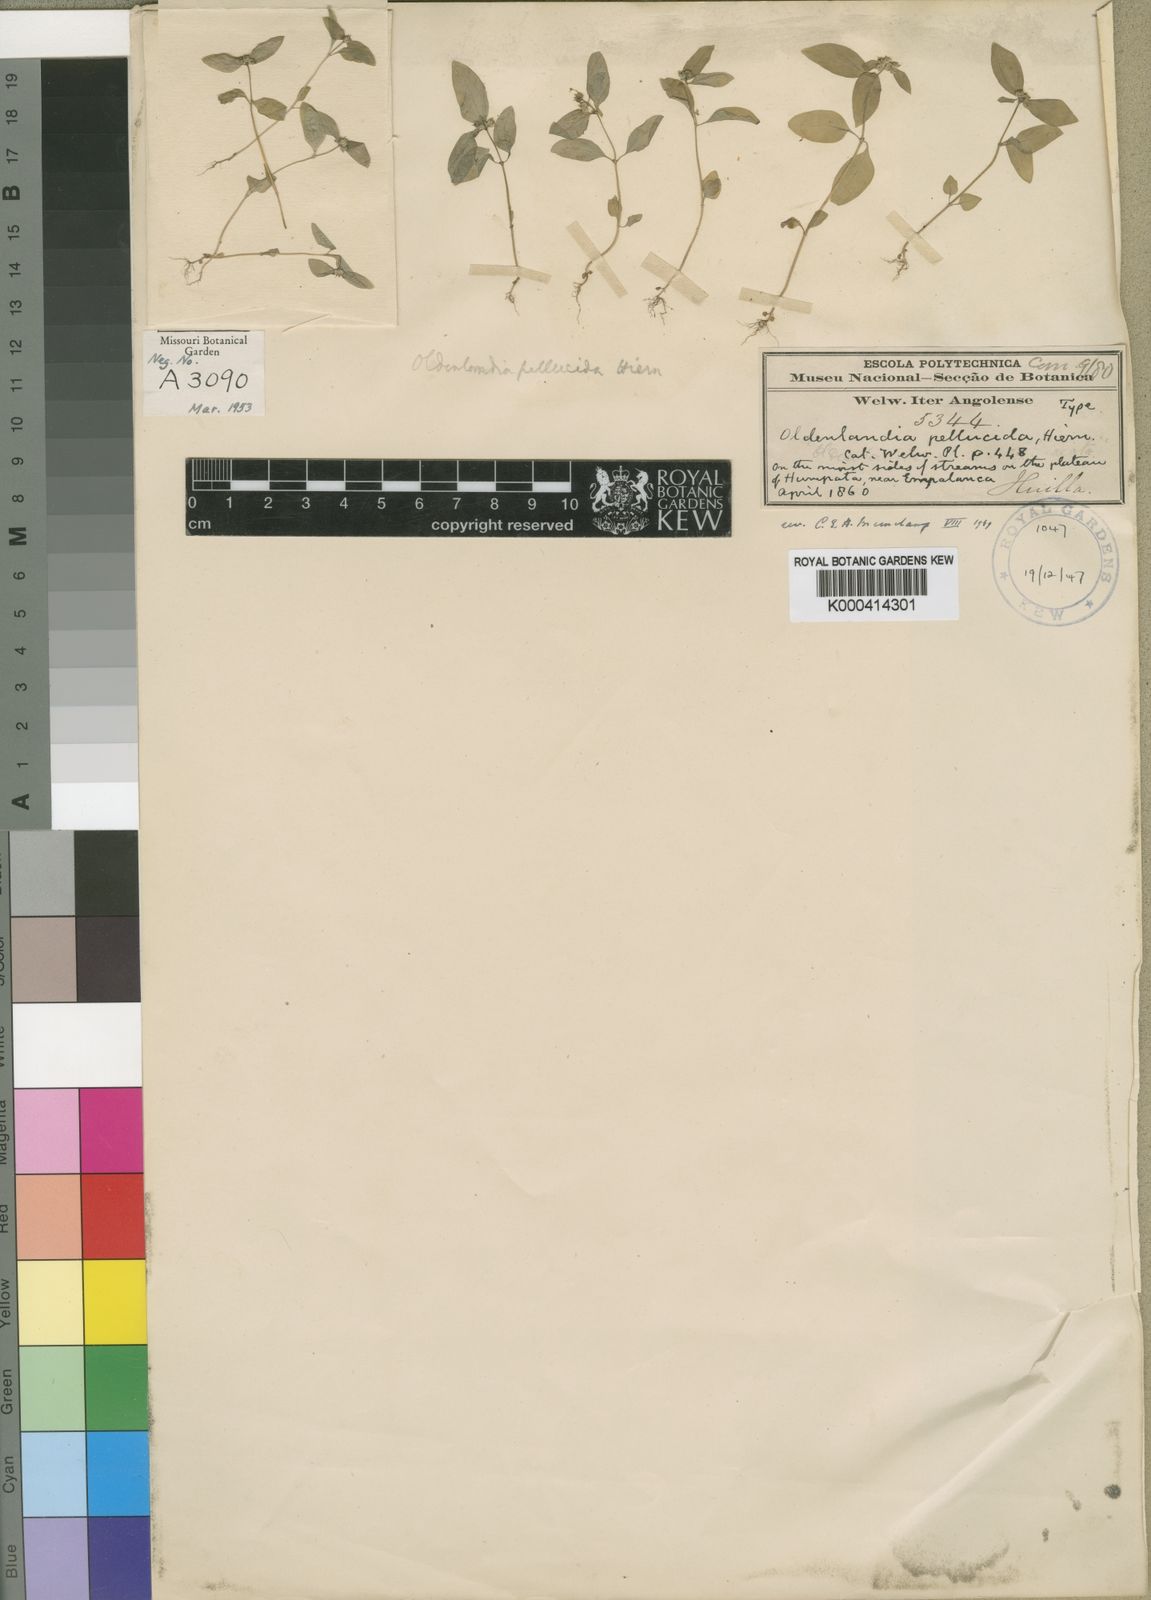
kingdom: Plantae
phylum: Tracheophyta
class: Magnoliopsida
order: Gentianales
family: Rubiaceae
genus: Oldenlandia
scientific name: Oldenlandia echinulosa
